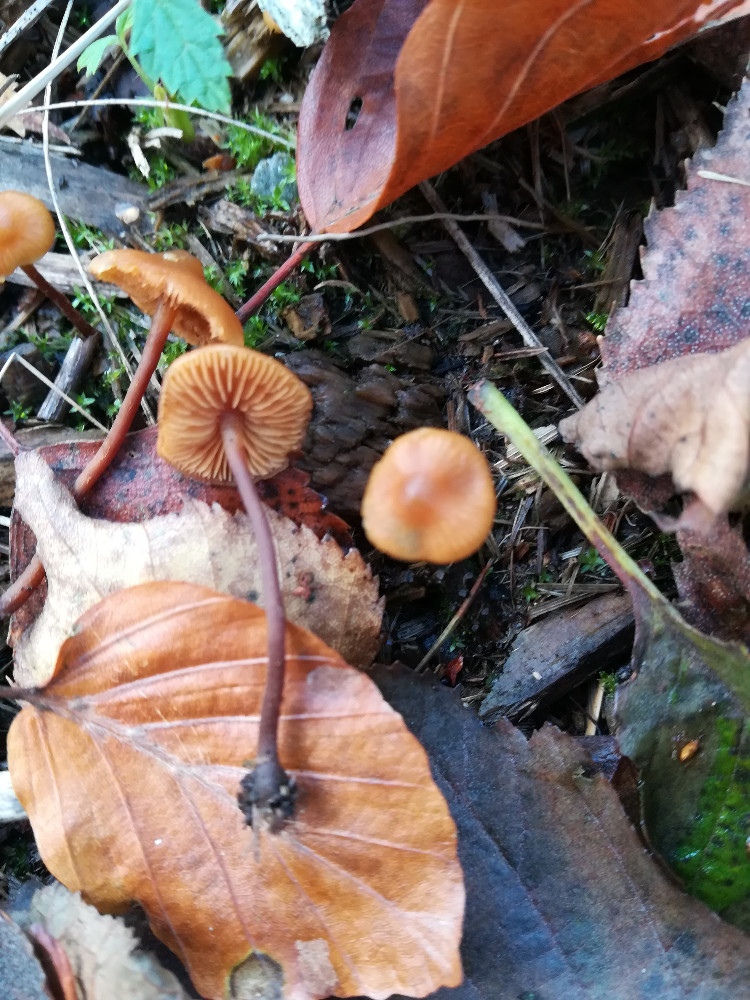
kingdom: Fungi
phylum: Basidiomycota
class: Agaricomycetes
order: Agaricales
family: Hymenogastraceae
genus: Galerina
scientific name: Galerina sideroides
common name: træflis-hjelmhat
